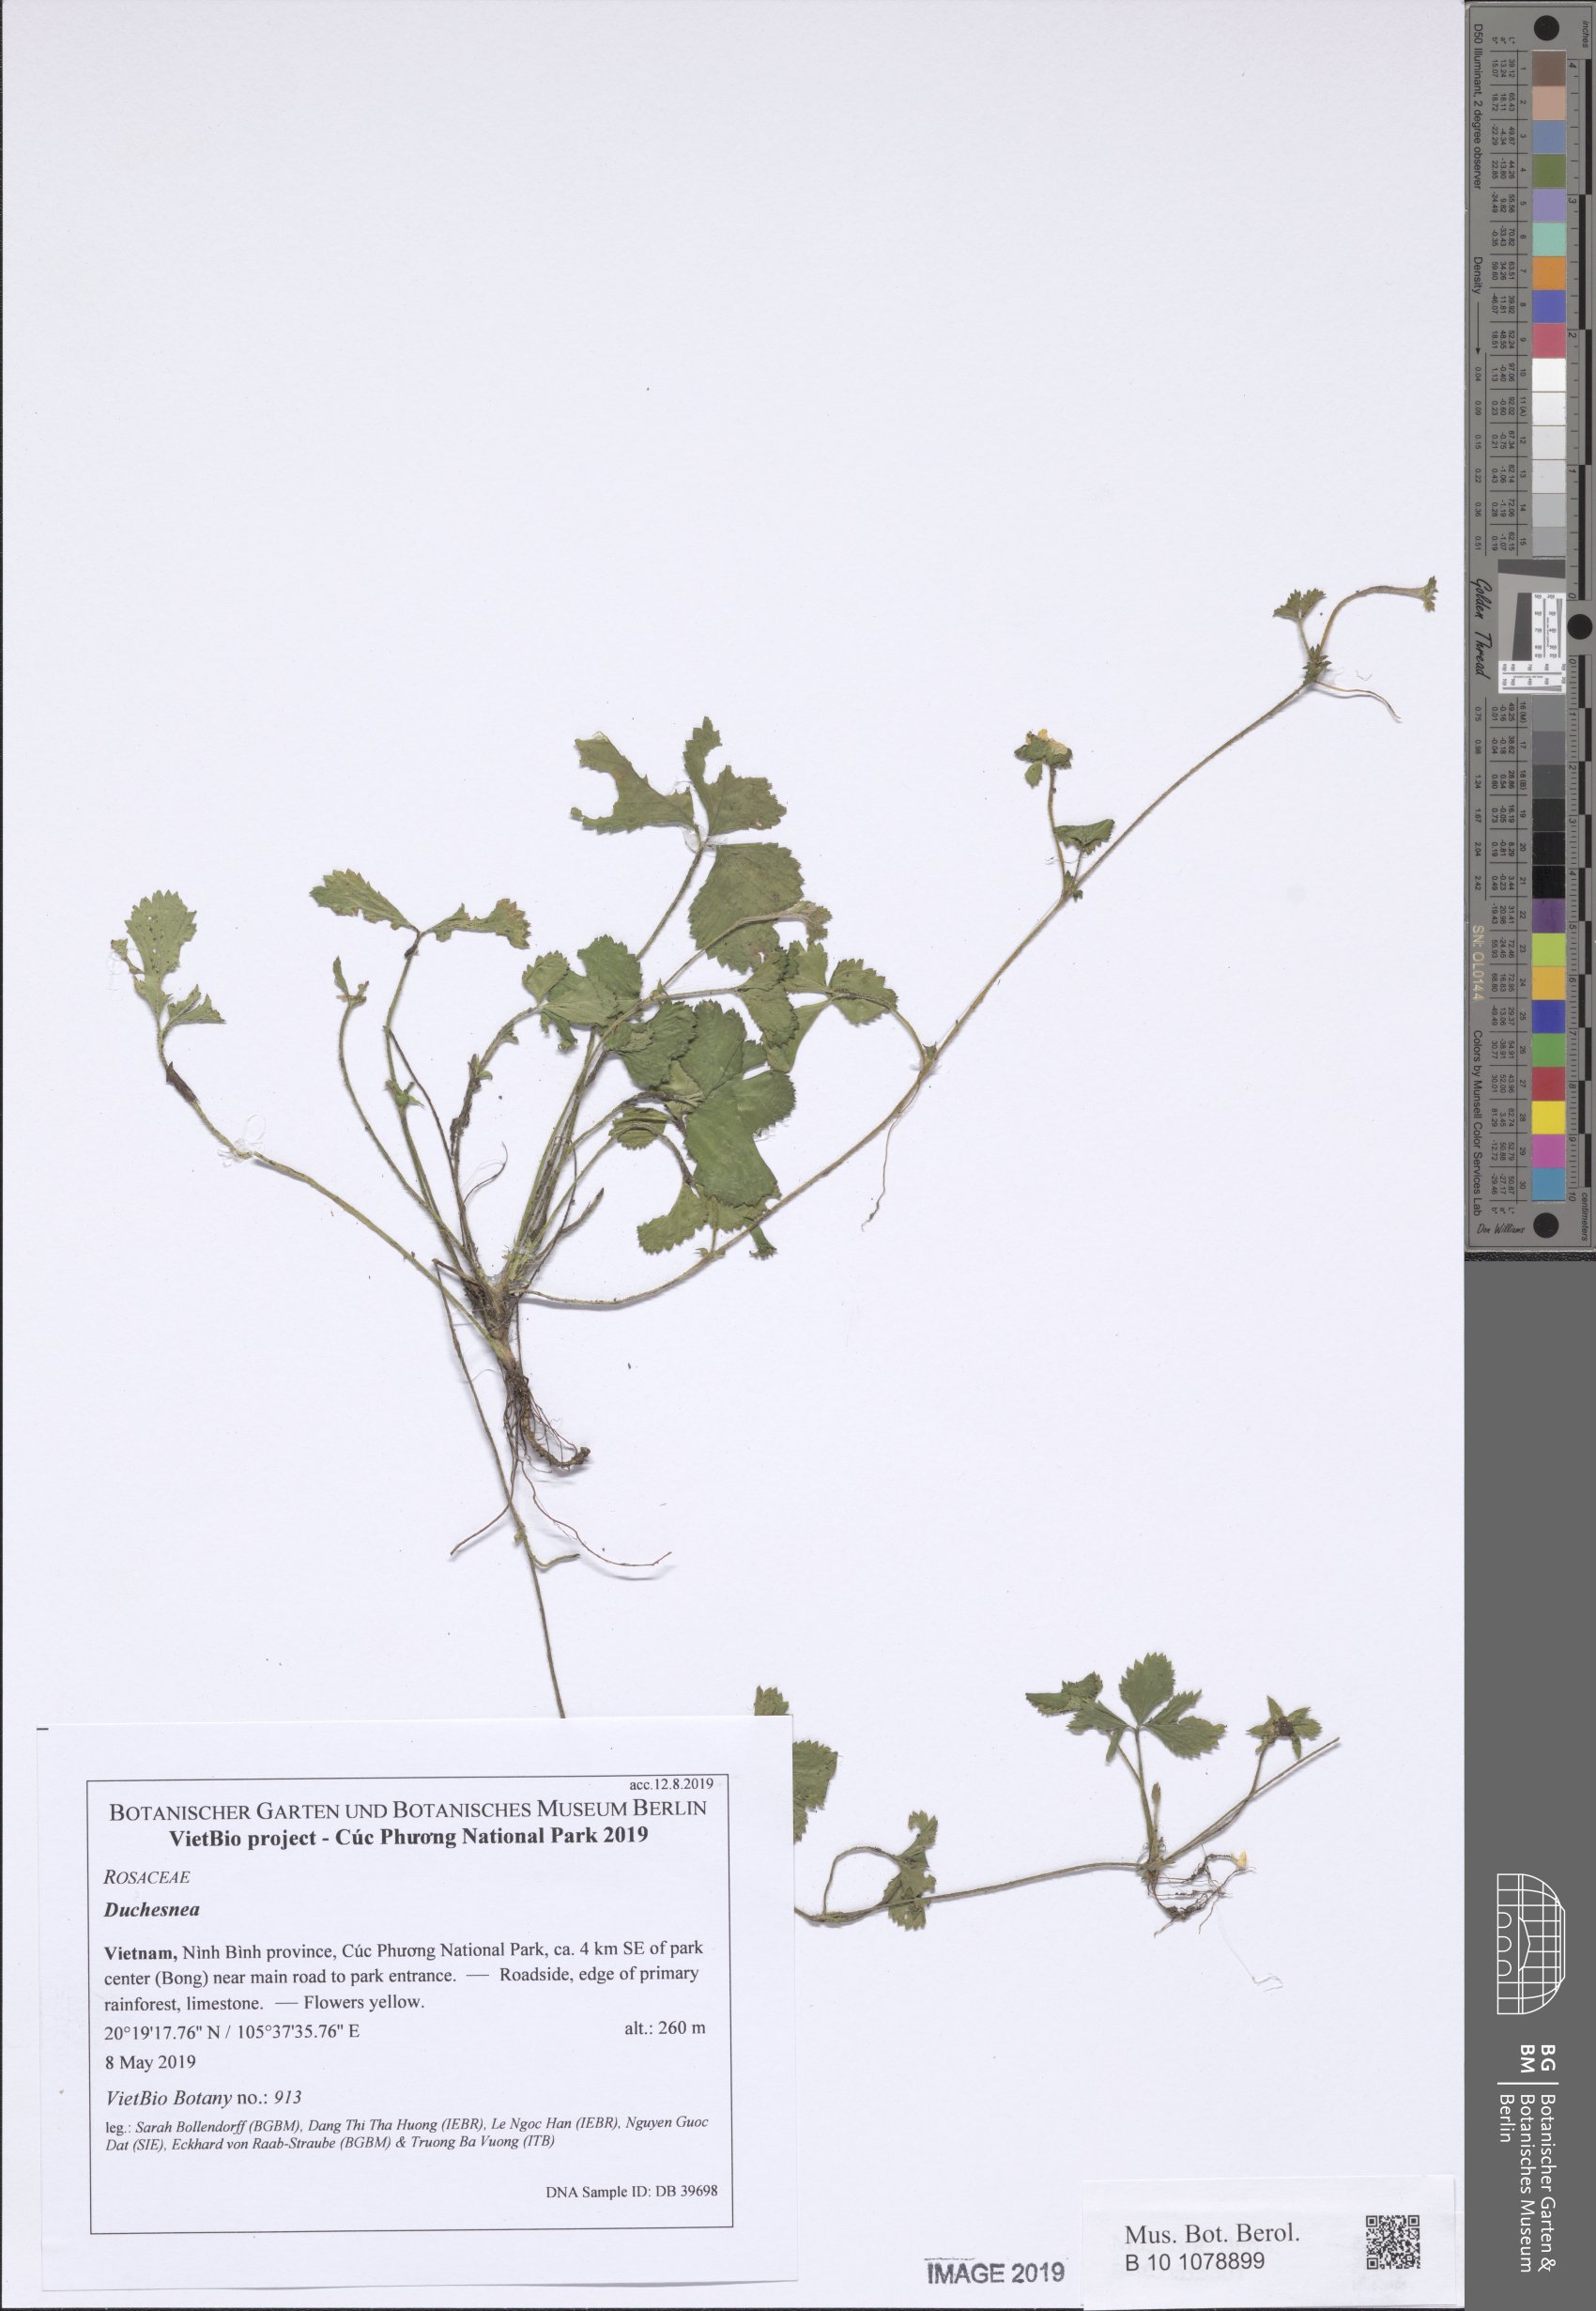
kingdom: Plantae
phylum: Tracheophyta
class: Magnoliopsida
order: Rosales
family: Rosaceae
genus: Potentilla
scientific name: Potentilla indica
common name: Yellow-flowered strawberry
